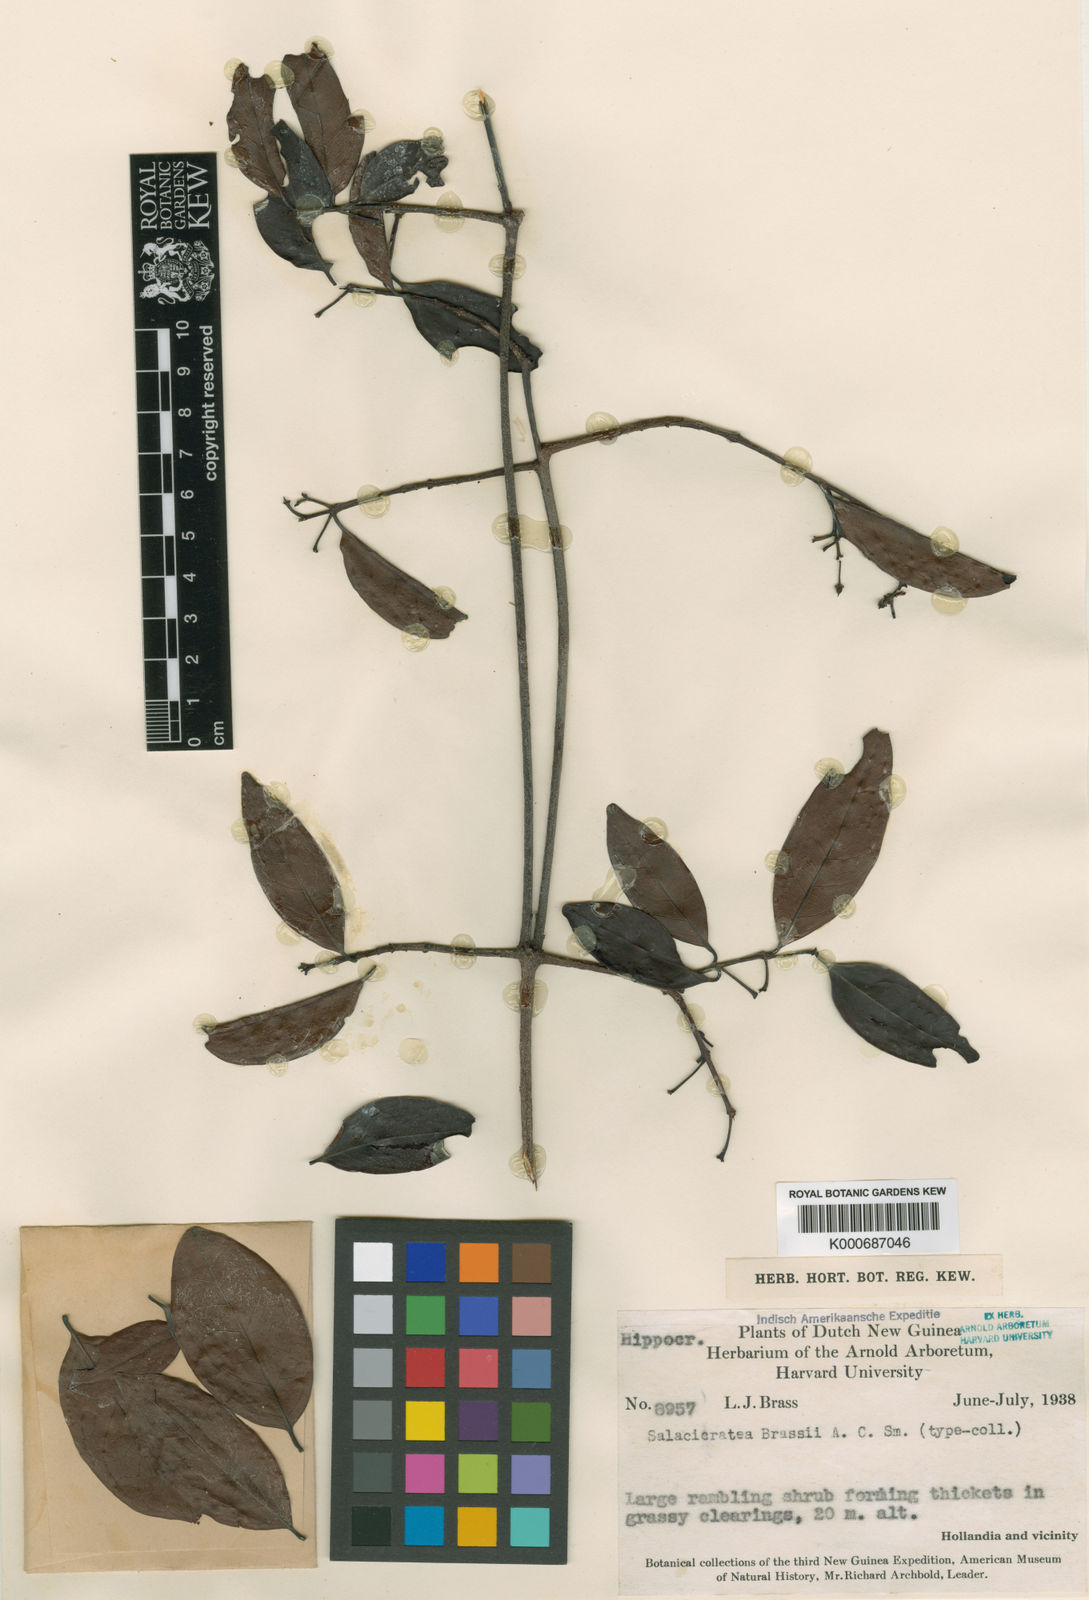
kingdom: Plantae
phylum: Tracheophyta
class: Magnoliopsida
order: Celastrales
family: Celastraceae
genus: Salacia
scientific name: Salacia sororia
